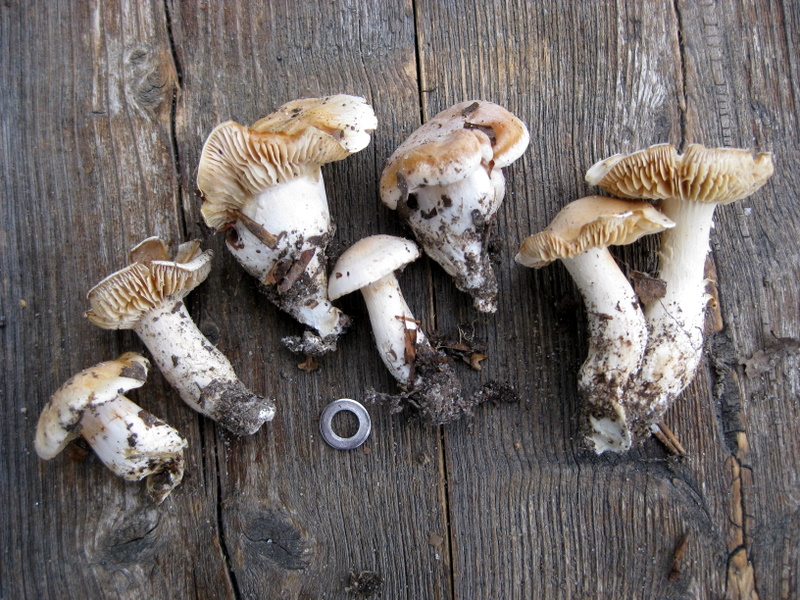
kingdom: Fungi
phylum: Basidiomycota
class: Agaricomycetes
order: Agaricales
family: Cortinariaceae
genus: Thaxterogaster
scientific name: Thaxterogaster barbatus
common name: elfenbens-slørhat
